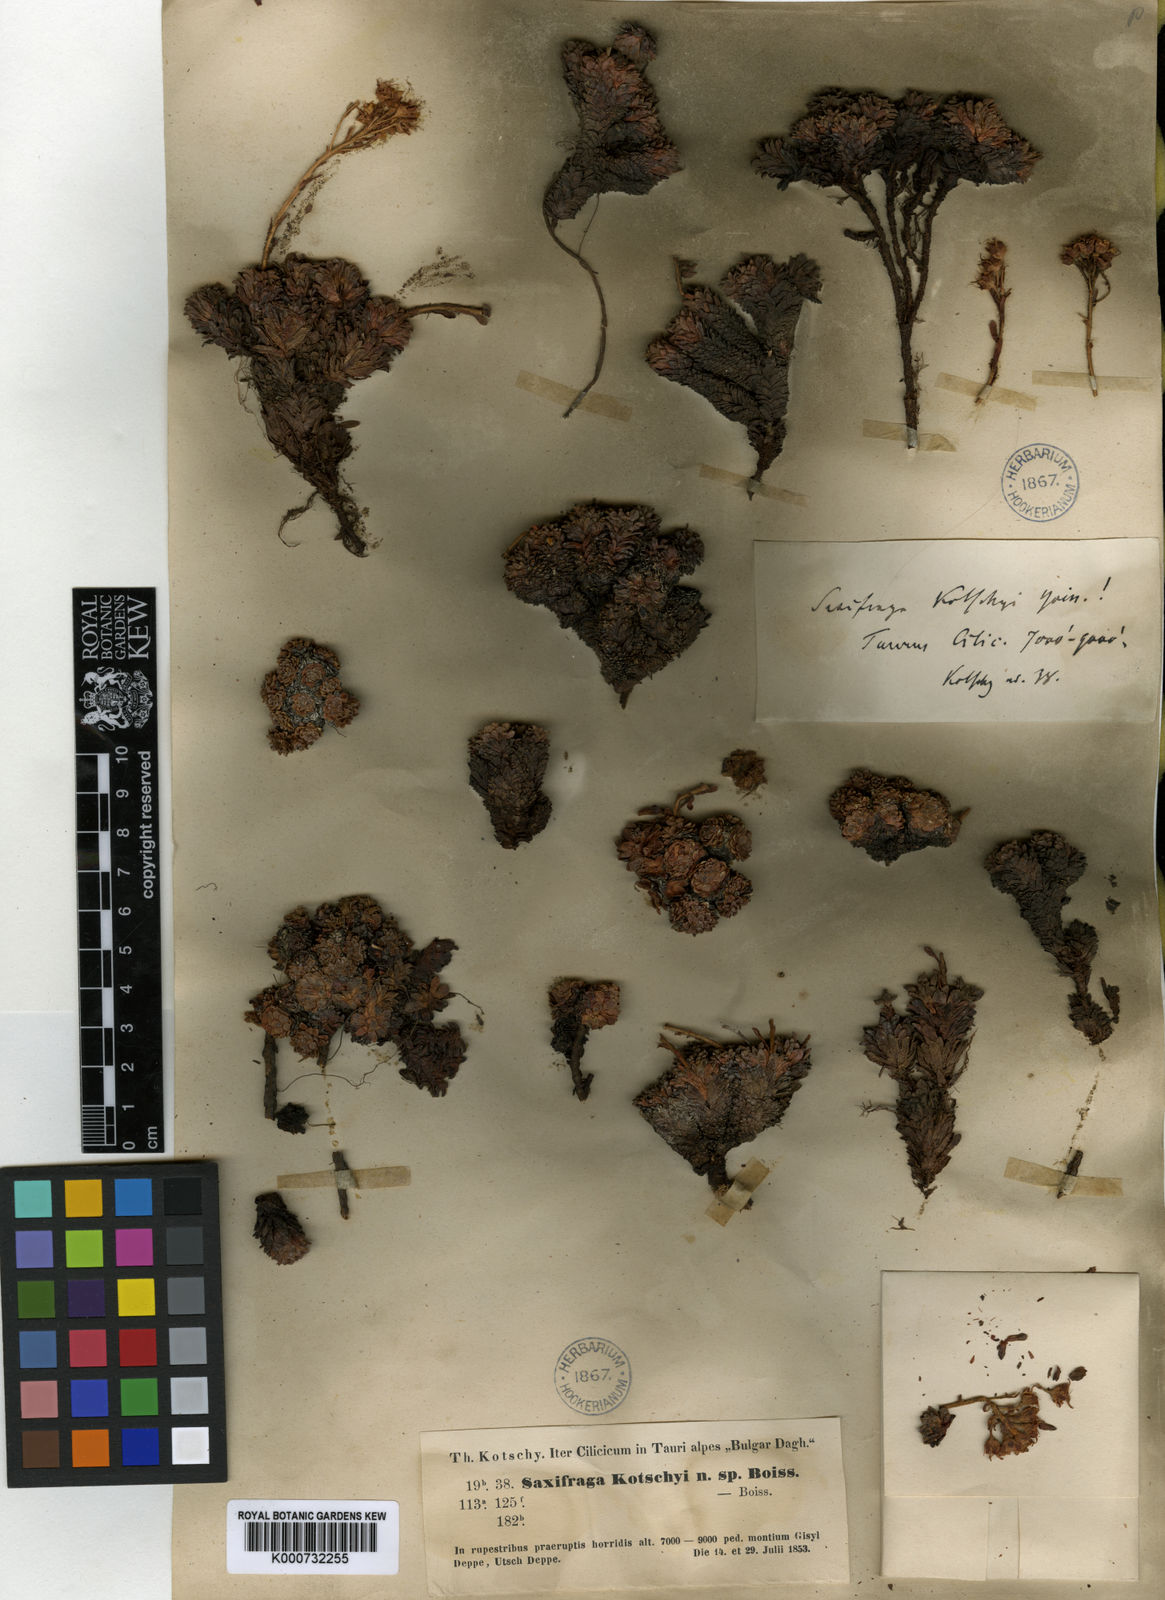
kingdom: Plantae
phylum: Tracheophyta
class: Magnoliopsida
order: Saxifragales
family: Saxifragaceae
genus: Saxifraga
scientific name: Saxifraga kotschyi
